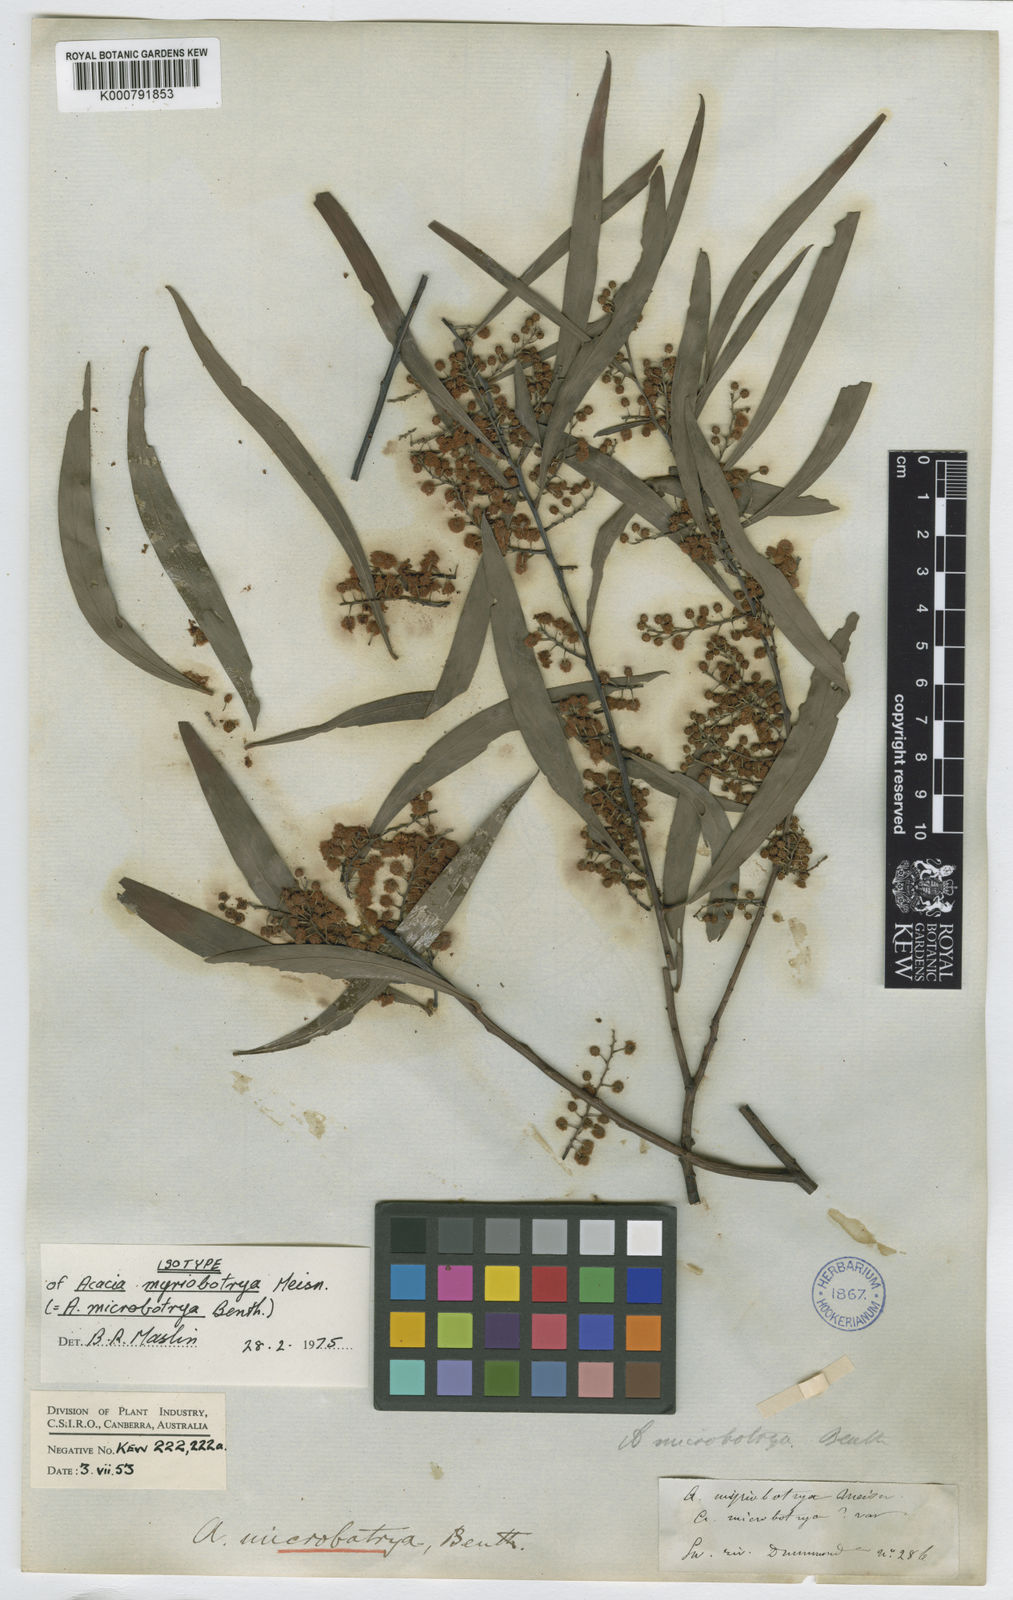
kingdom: Plantae
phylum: Tracheophyta
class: Magnoliopsida
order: Fabales
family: Fabaceae
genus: Acacia
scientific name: Acacia microbotrya
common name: Manna wattle
